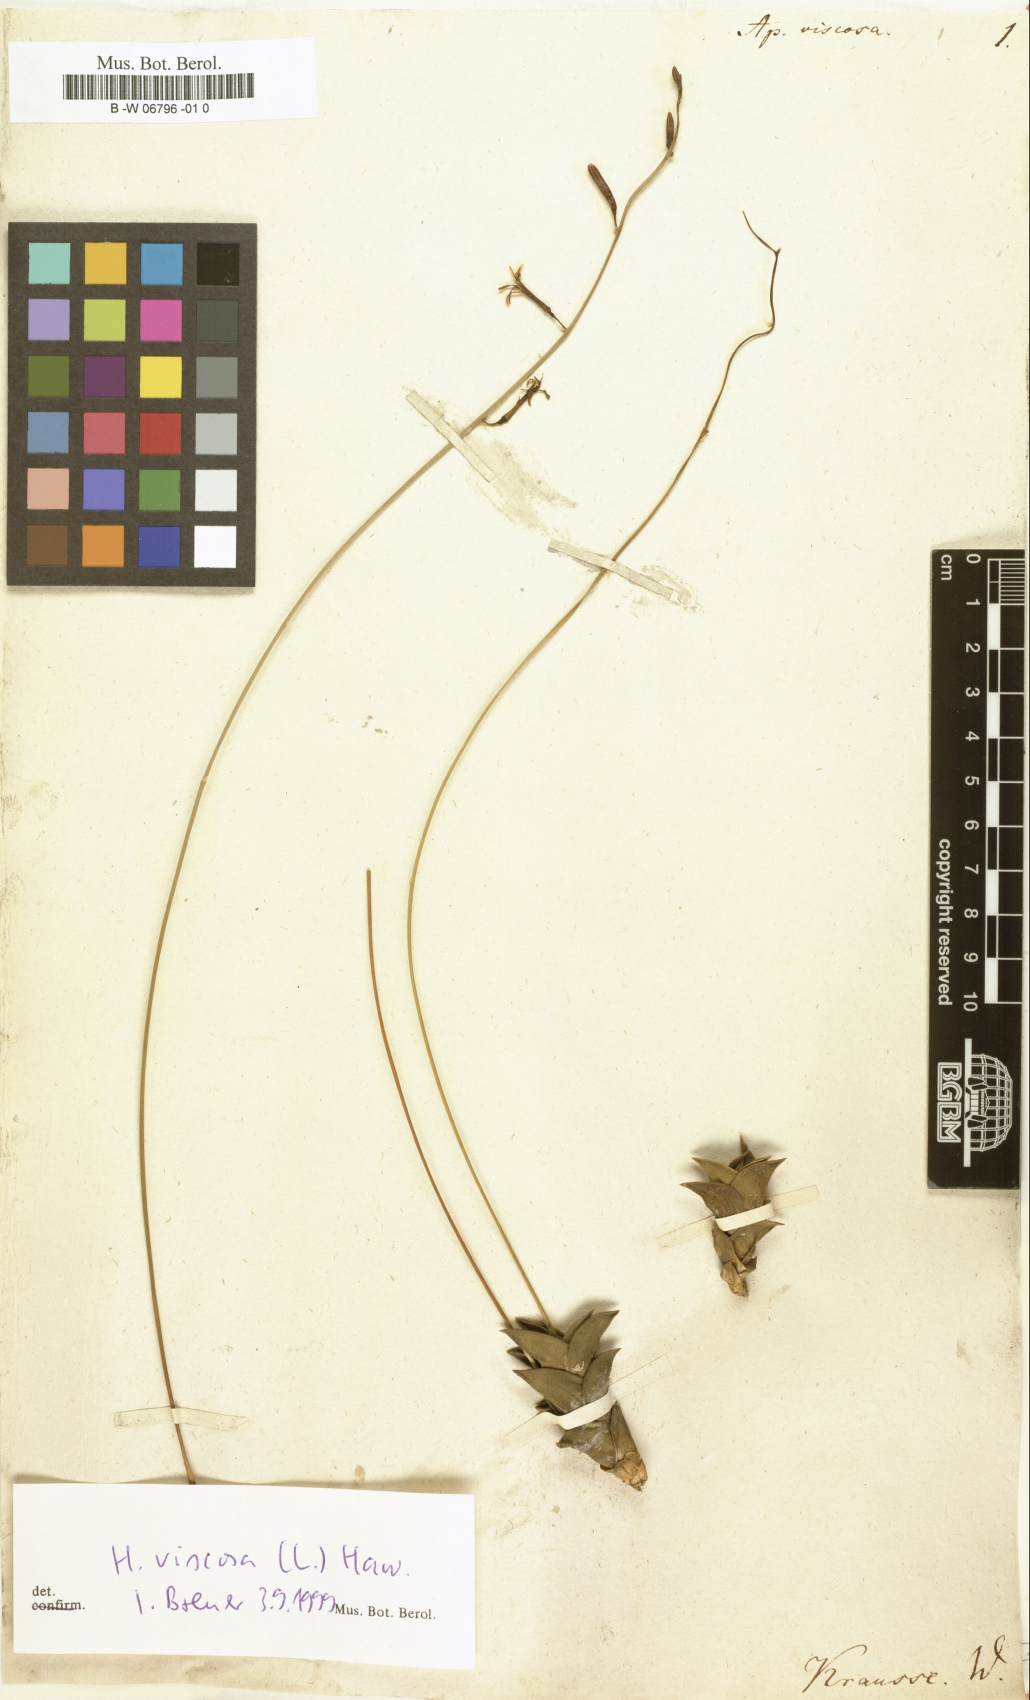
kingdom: Plantae
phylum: Tracheophyta
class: Liliopsida
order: Asparagales
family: Asphodelaceae
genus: Haworthiopsis
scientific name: Haworthiopsis viscosa
